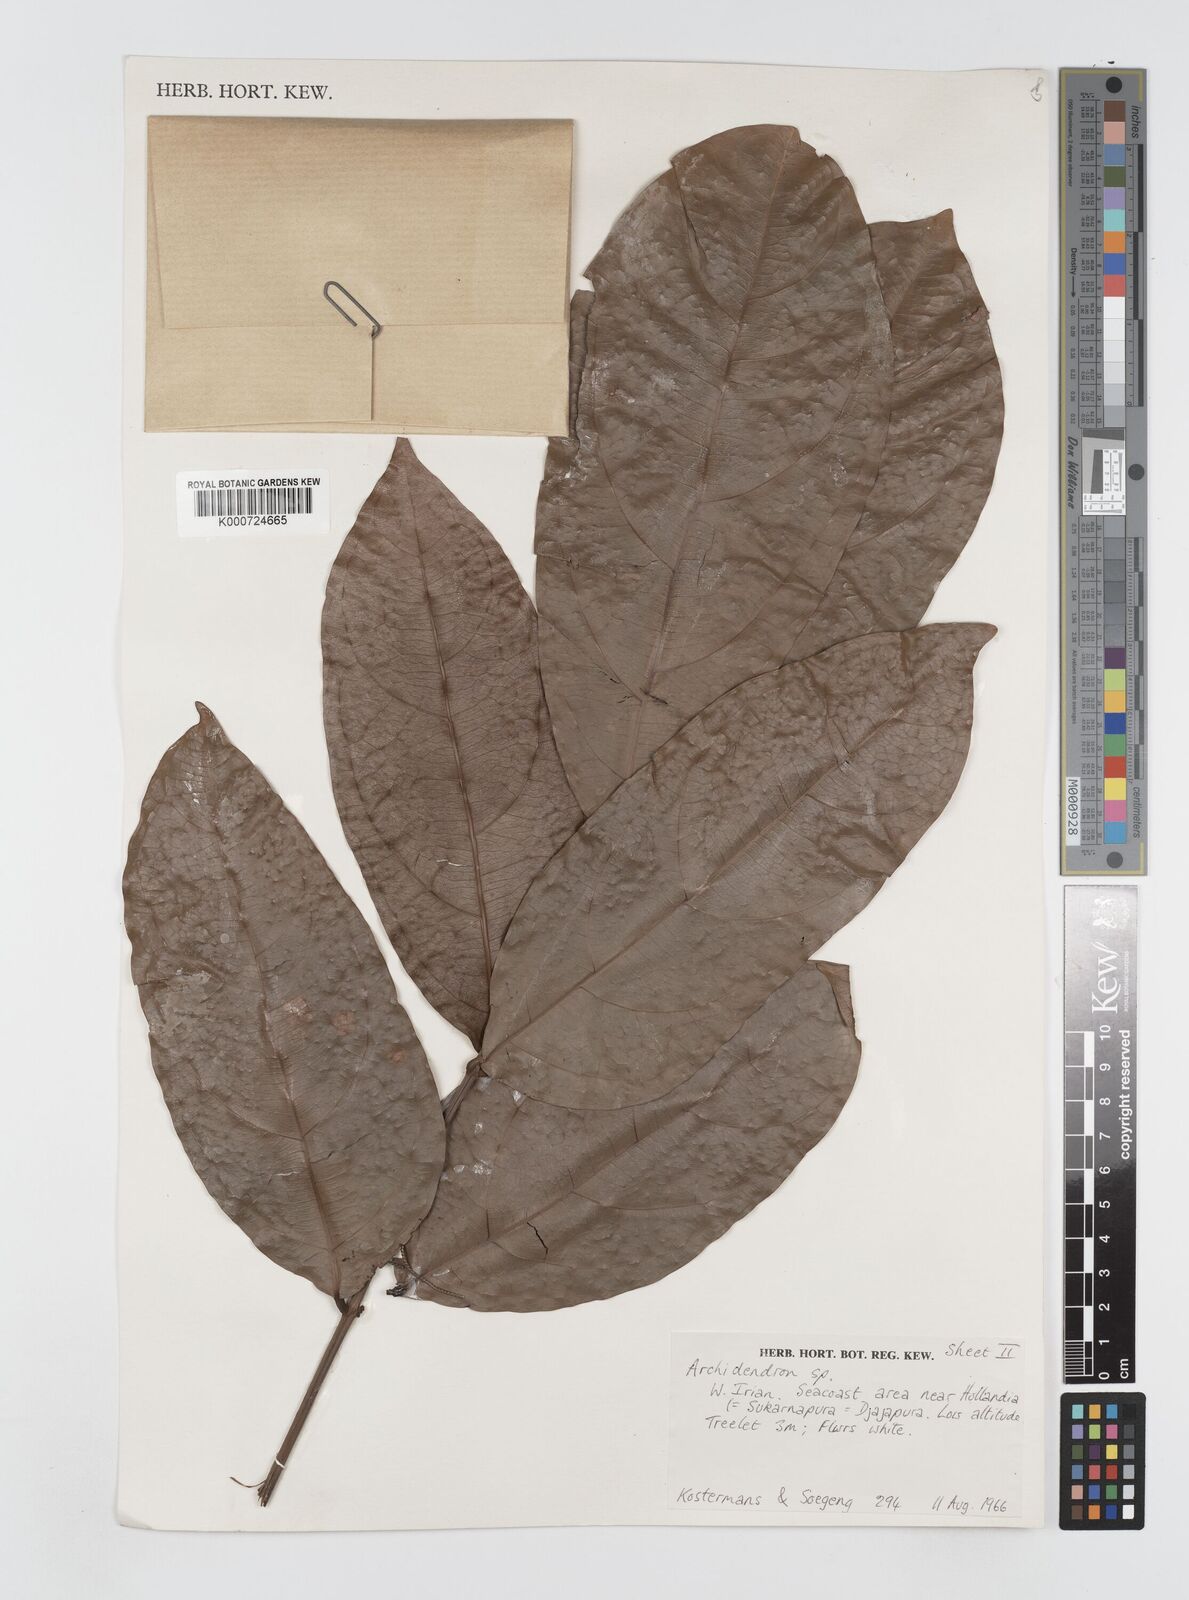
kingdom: Plantae
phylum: Tracheophyta
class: Magnoliopsida
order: Fabales
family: Fabaceae
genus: Archidendron
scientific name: Archidendron aruense
